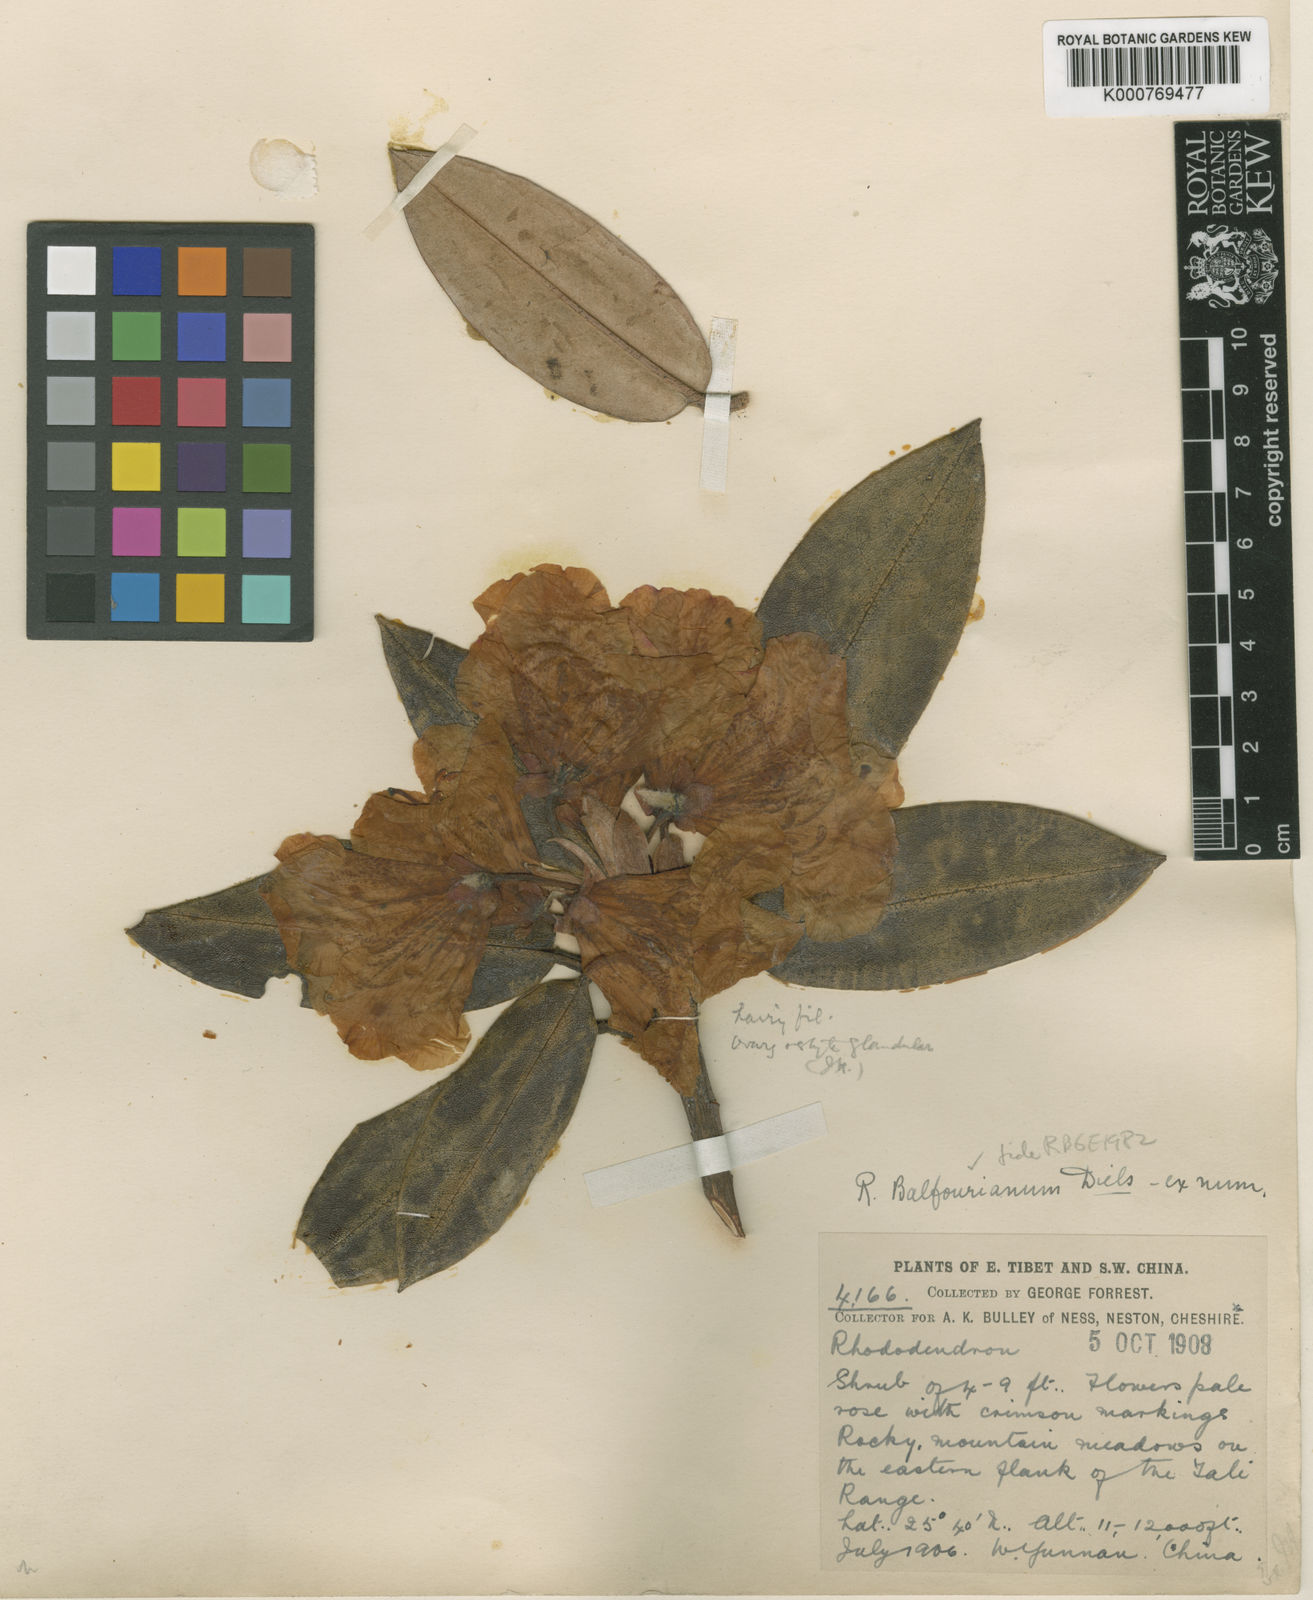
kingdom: Plantae
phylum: Tracheophyta
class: Magnoliopsida
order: Ericales
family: Ericaceae
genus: Rhododendron
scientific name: Rhododendron balfourianum
